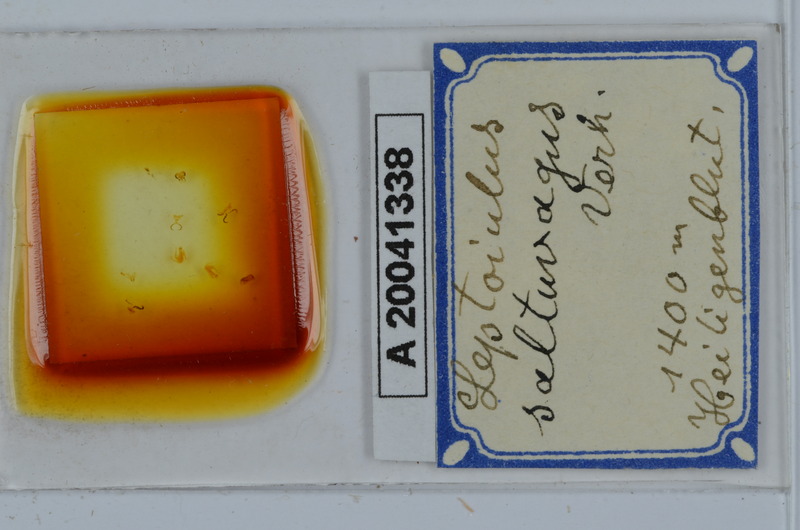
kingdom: Animalia
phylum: Arthropoda
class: Diplopoda
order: Julida
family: Julidae
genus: Leptoiulus
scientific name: Leptoiulus saltuvagus
